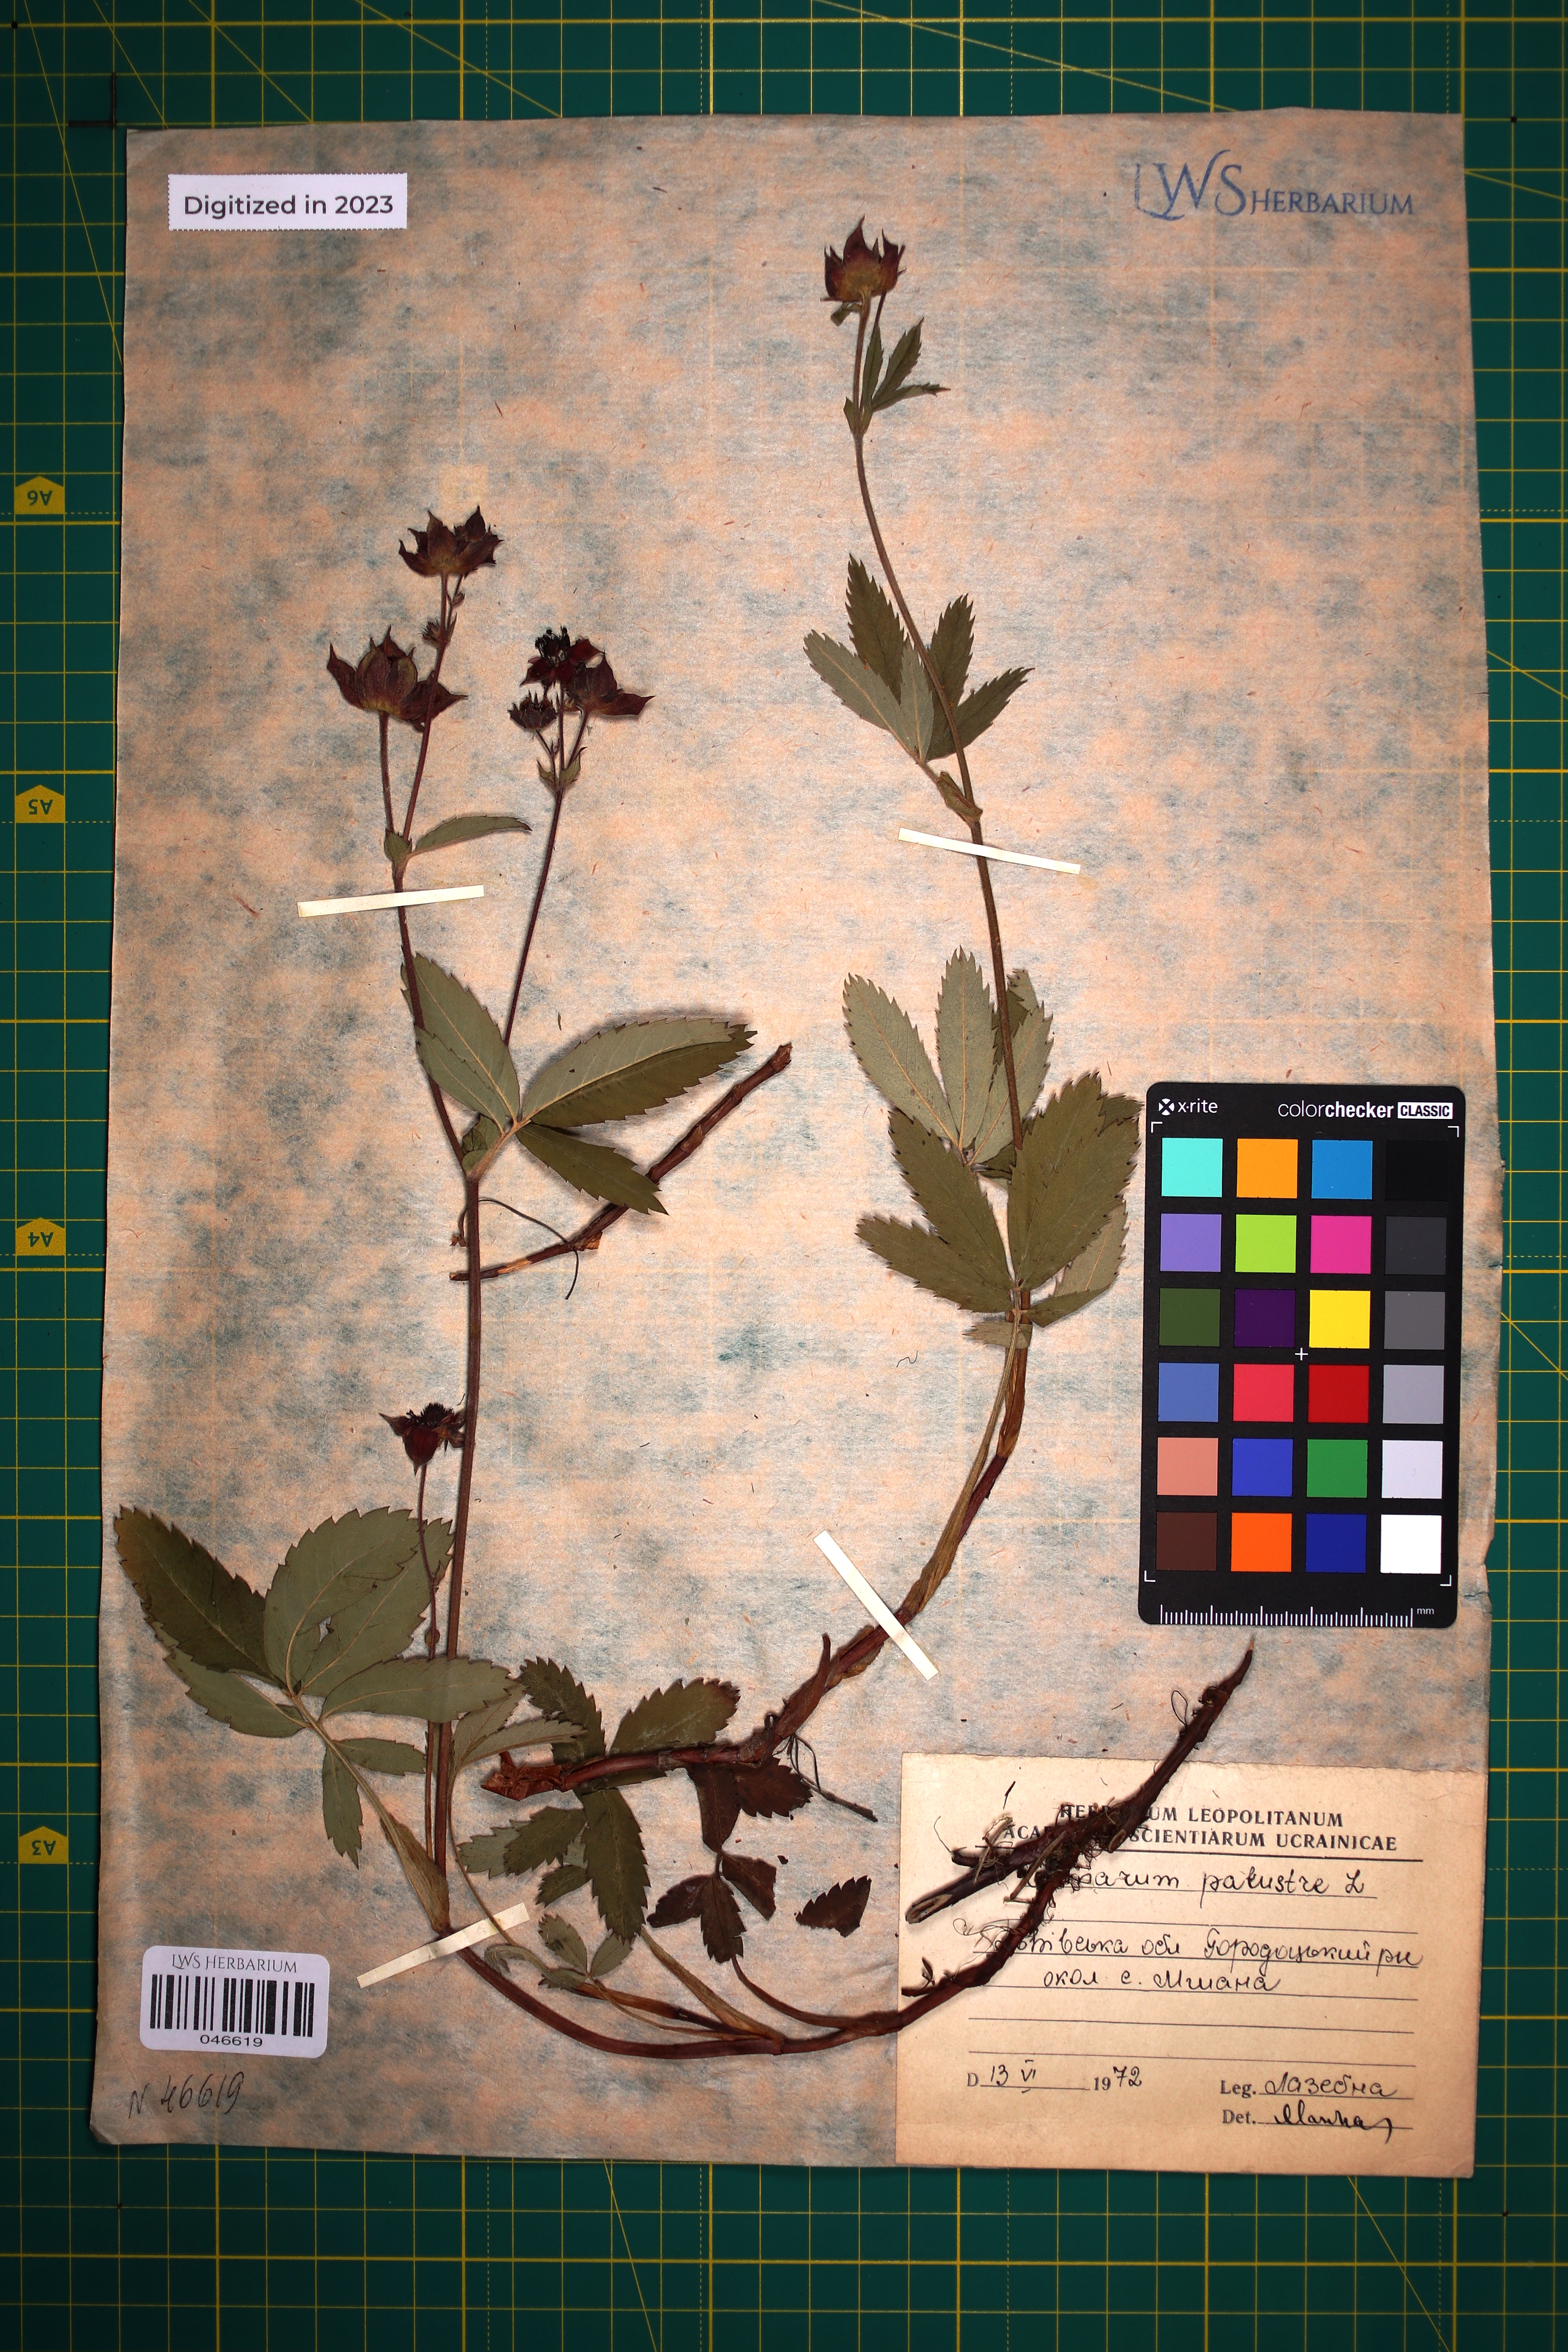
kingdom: Plantae
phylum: Tracheophyta
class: Magnoliopsida
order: Rosales
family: Rosaceae
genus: Comarum
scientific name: Comarum palustre
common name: Marsh cinquefoil
